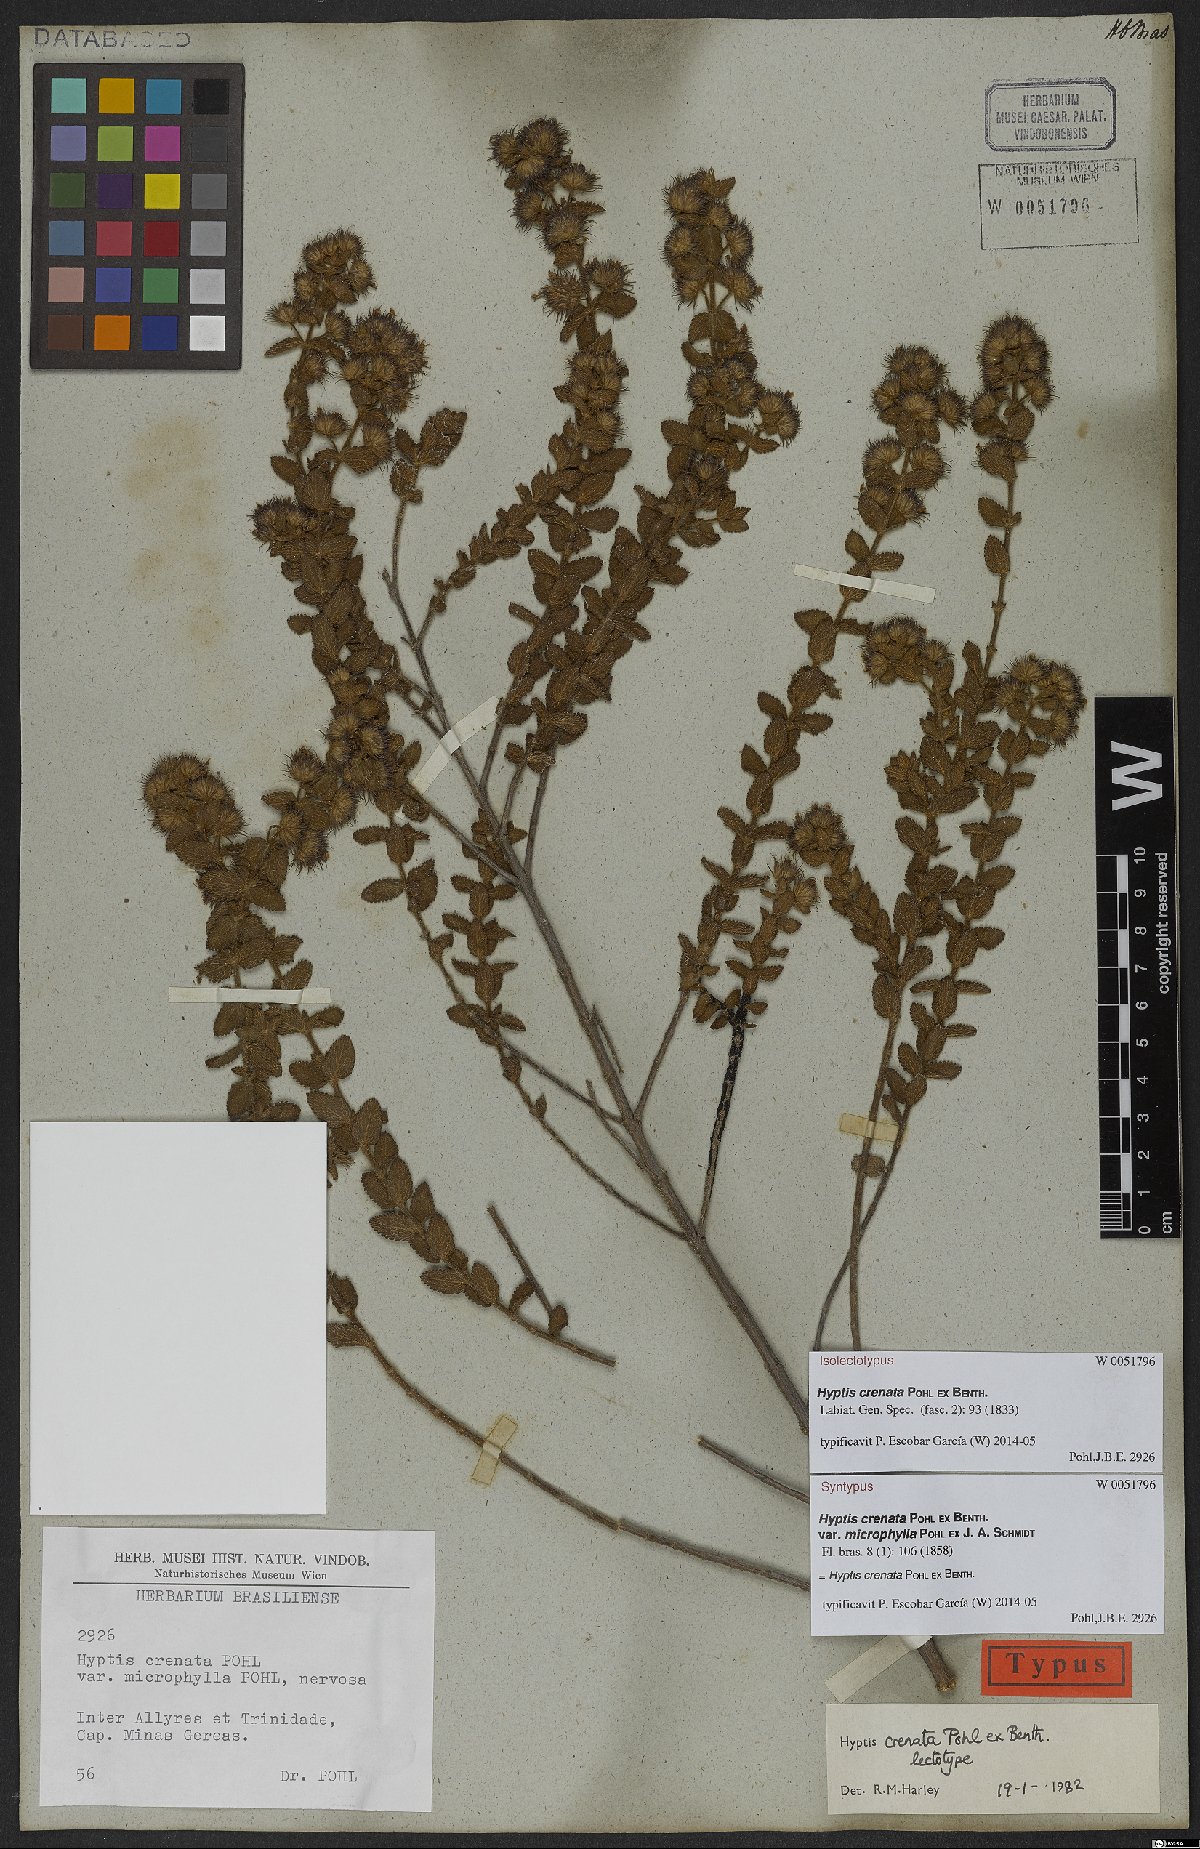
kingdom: Plantae
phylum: Tracheophyta
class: Magnoliopsida
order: Lamiales
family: Lamiaceae
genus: Hyptis
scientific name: Hyptis crenata
